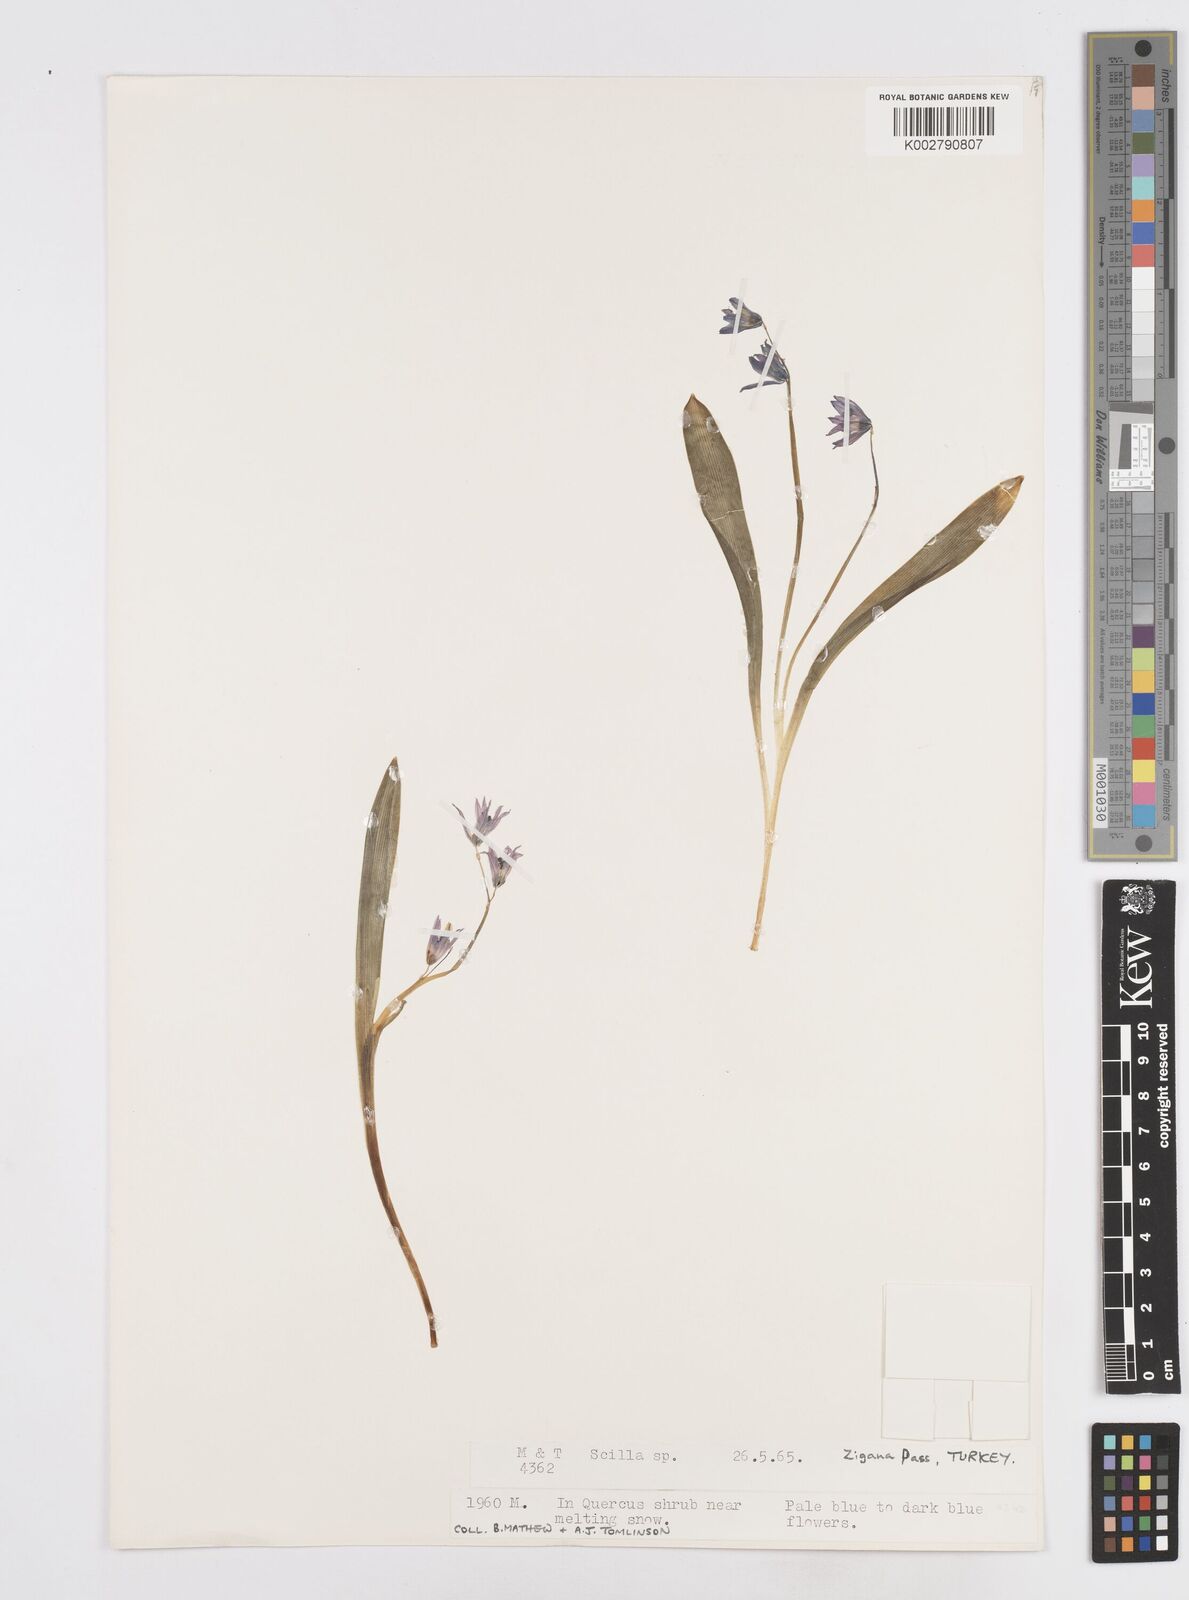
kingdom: Plantae
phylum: Tracheophyta
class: Liliopsida
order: Asparagales
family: Asparagaceae
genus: Scilla
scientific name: Scilla siberica
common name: Siberian squill
